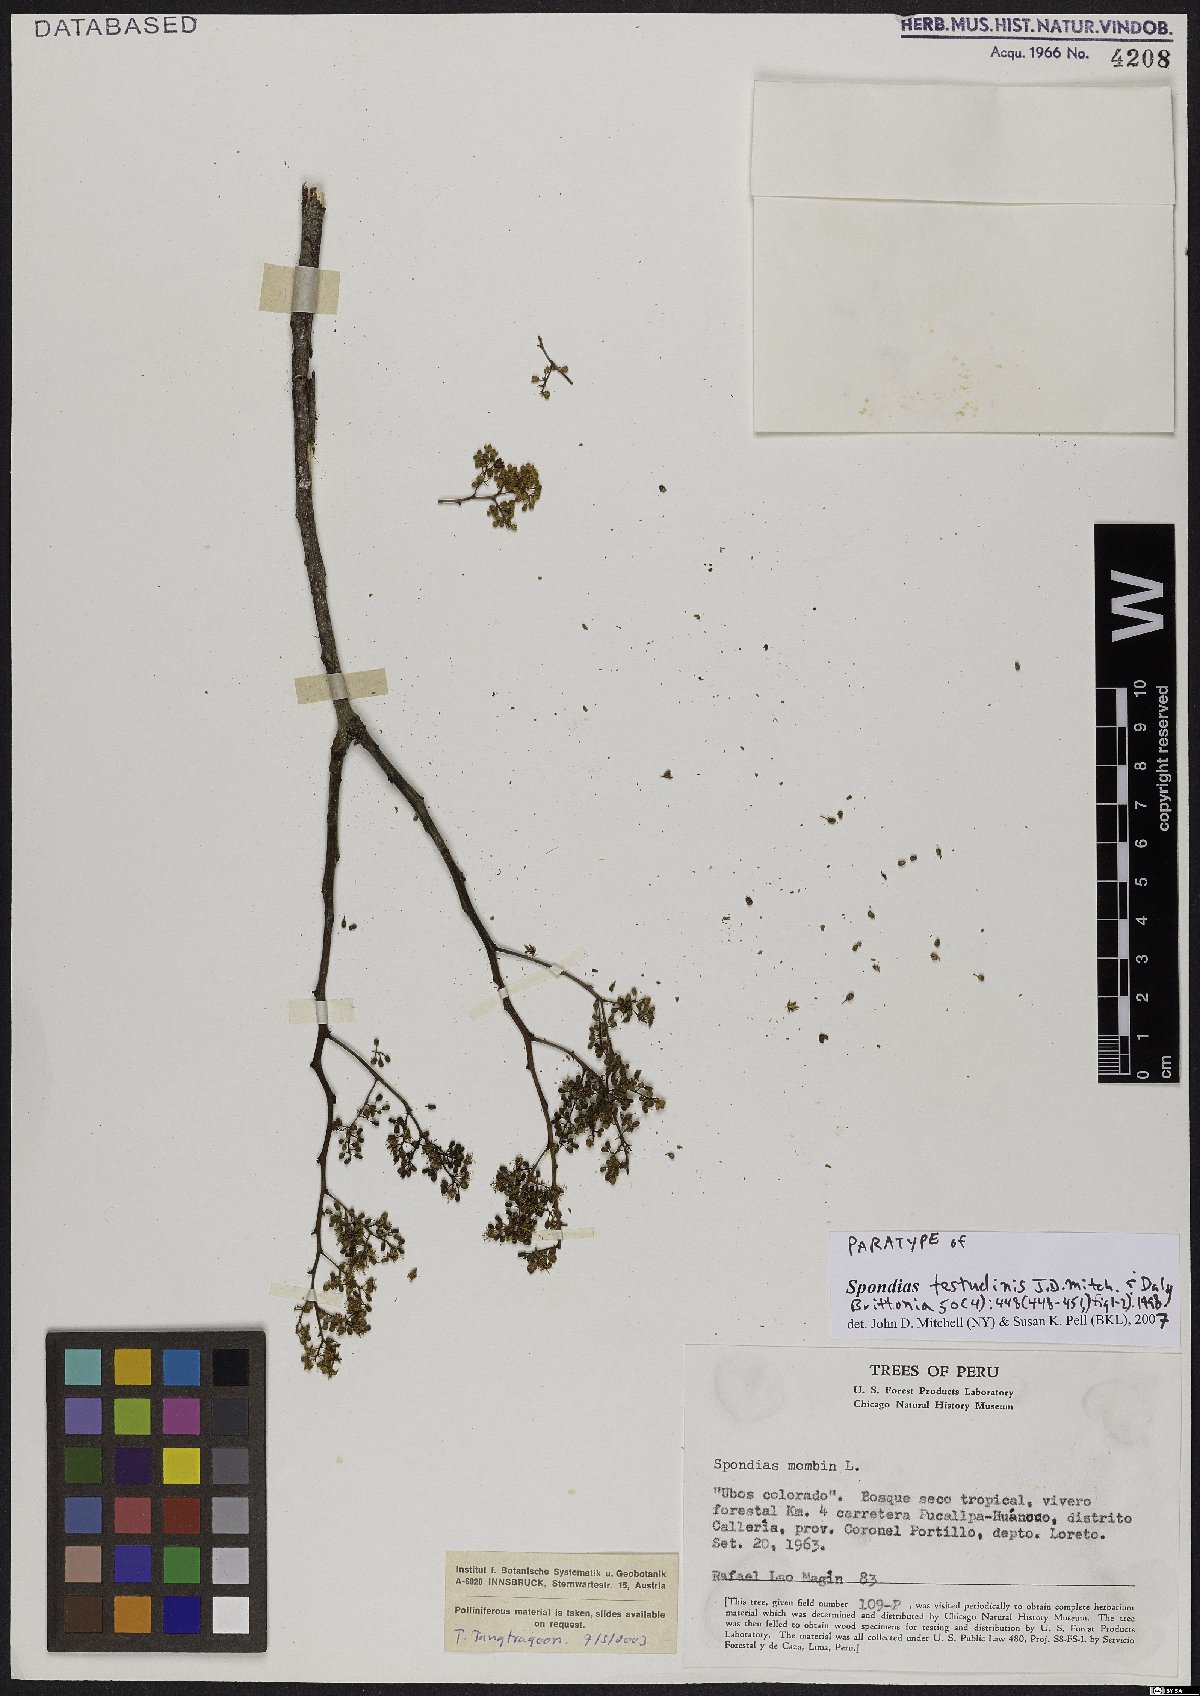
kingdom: Plantae
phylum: Tracheophyta
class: Magnoliopsida
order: Sapindales
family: Anacardiaceae
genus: Spondias
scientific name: Spondias testudinis
